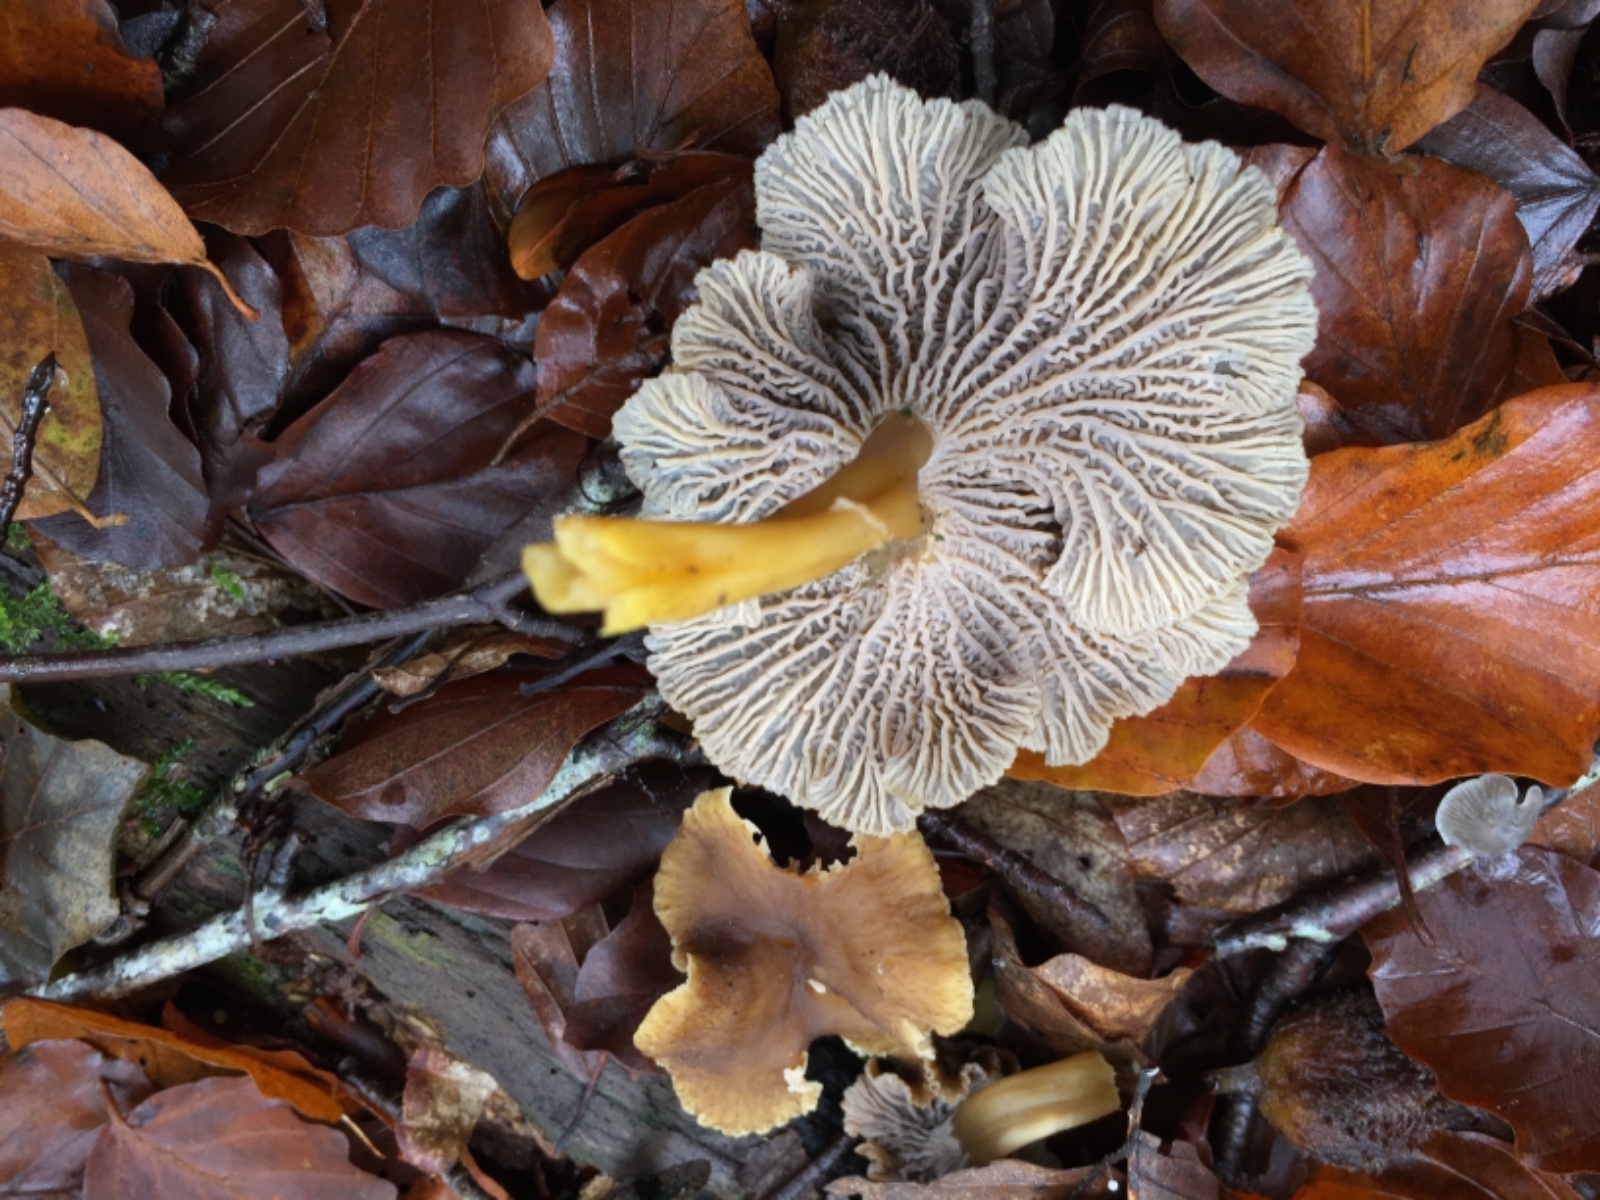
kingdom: Fungi
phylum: Basidiomycota
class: Agaricomycetes
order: Cantharellales
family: Hydnaceae
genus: Craterellus
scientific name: Craterellus tubaeformis
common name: tragt-kantarel
